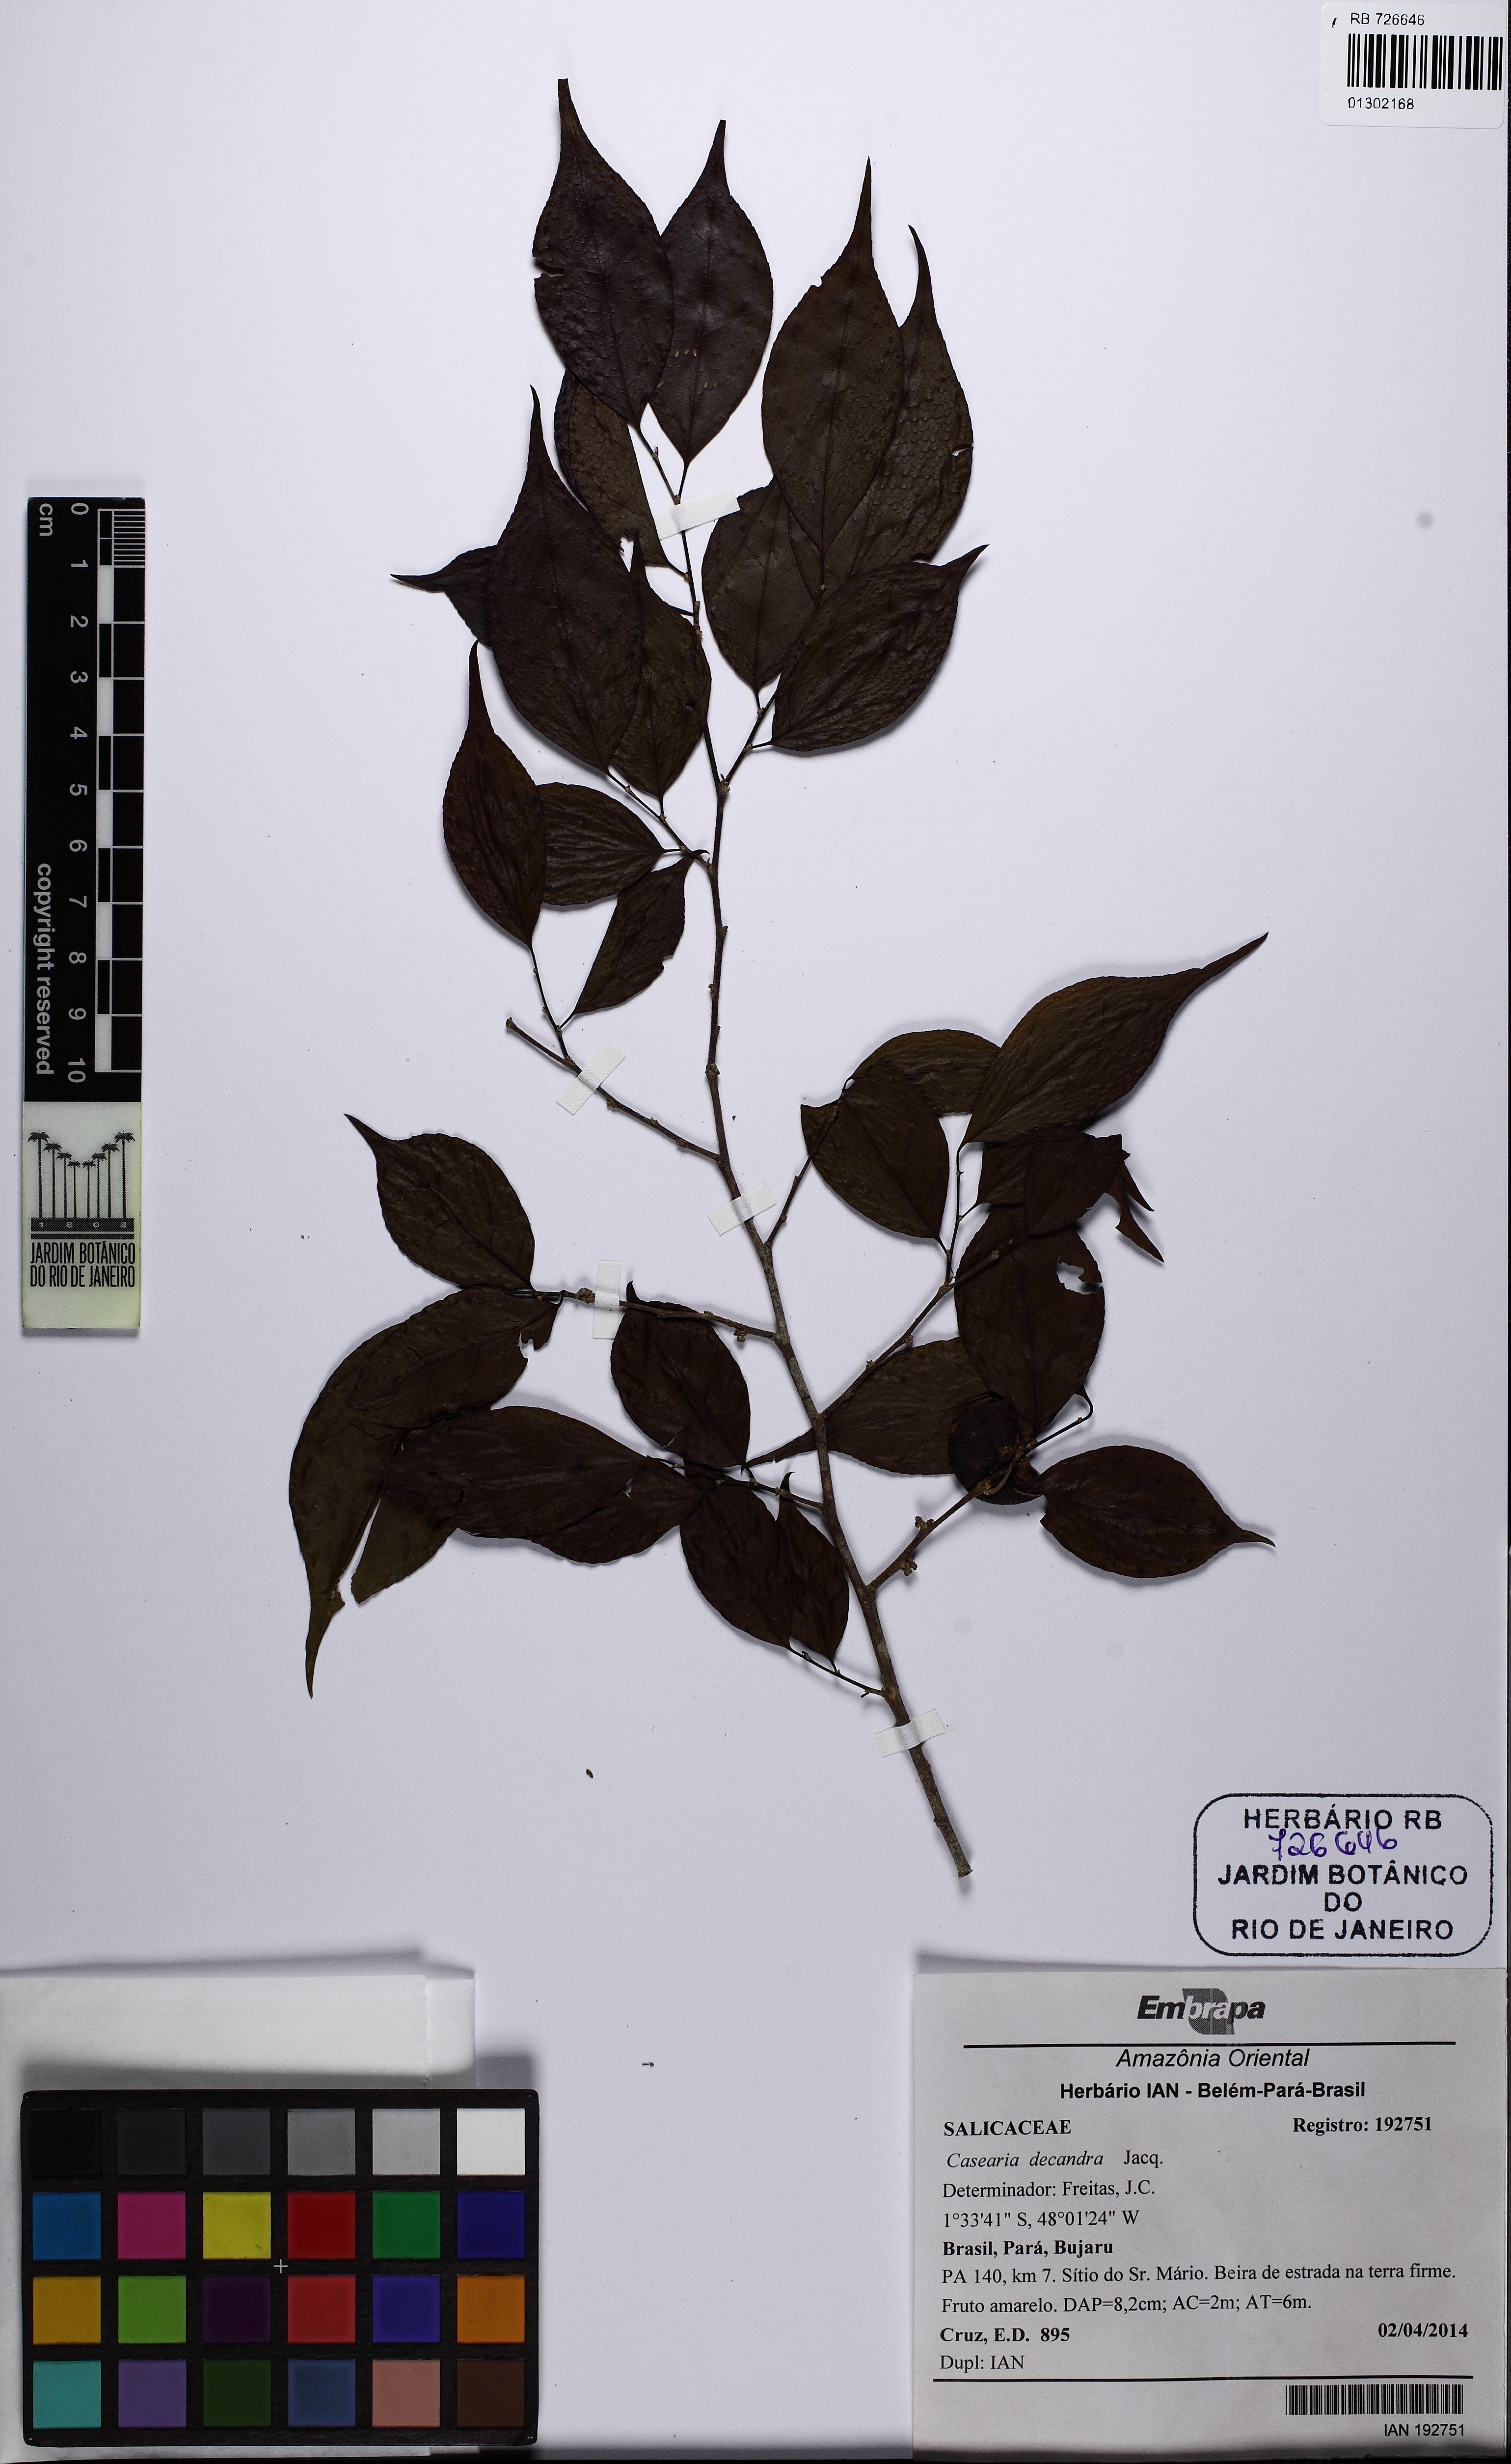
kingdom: Plantae
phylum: Tracheophyta
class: Magnoliopsida
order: Malpighiales
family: Salicaceae
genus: Casearia
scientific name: Casearia decandra
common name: Crack open
